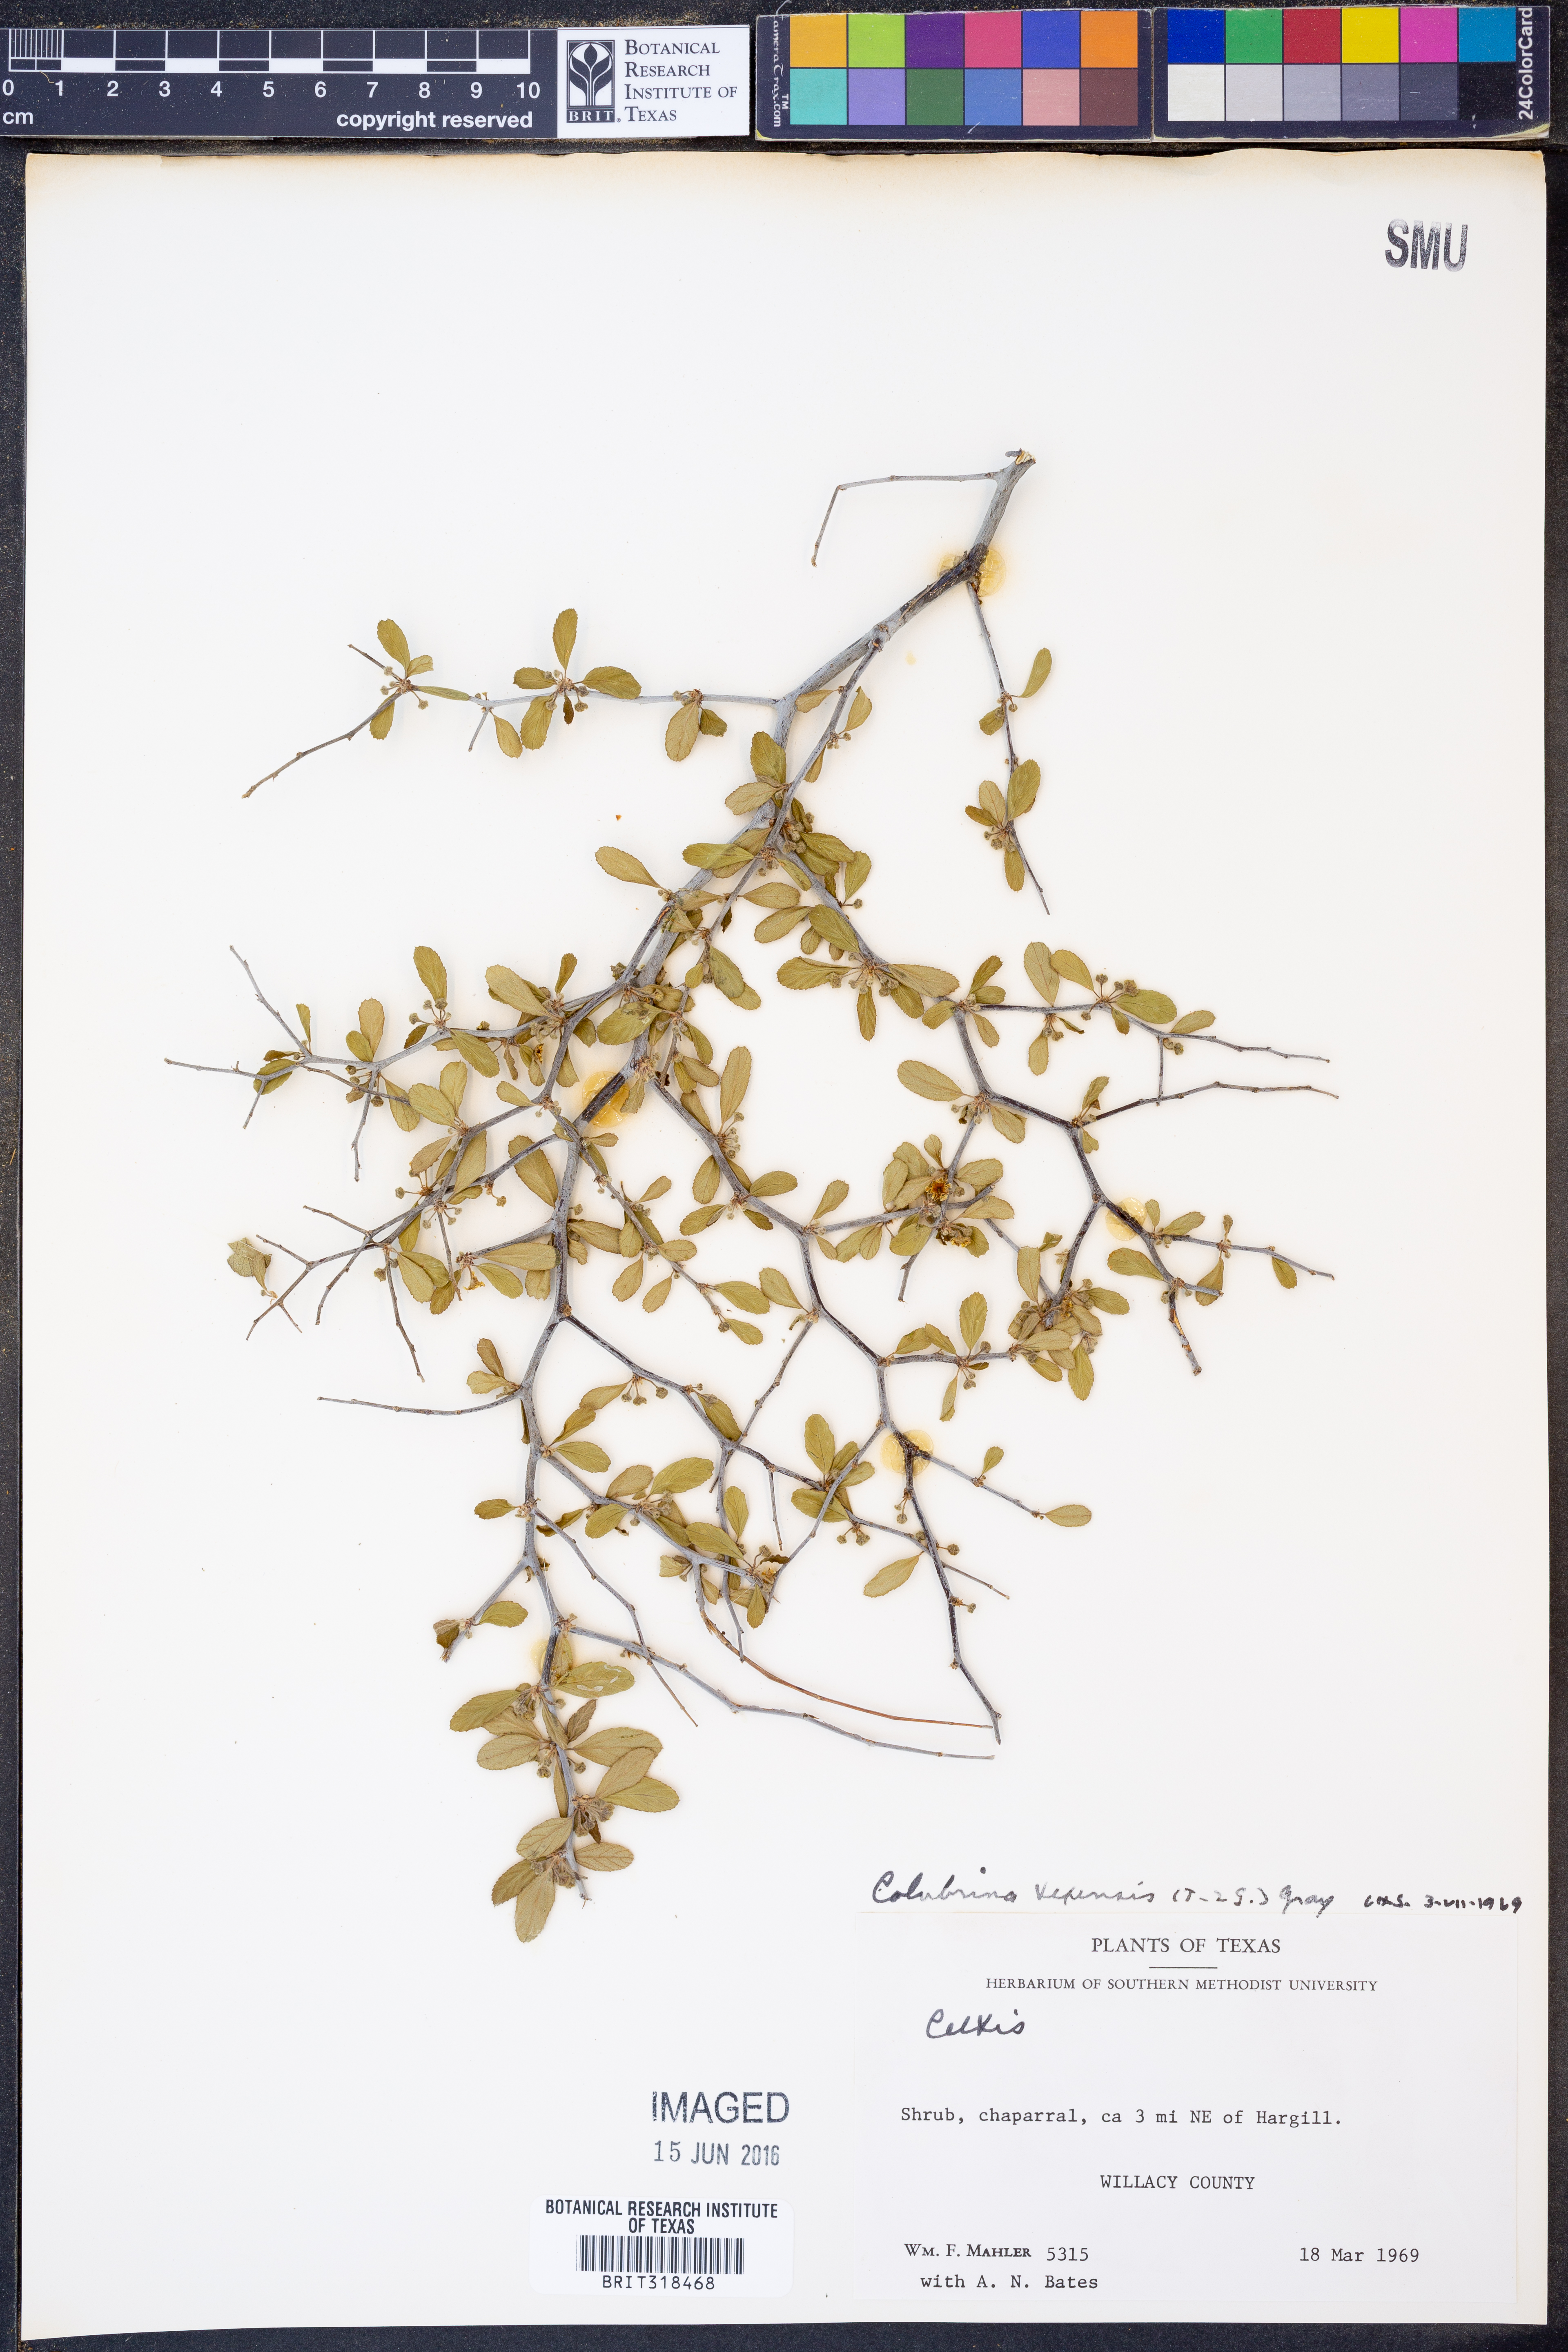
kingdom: Plantae
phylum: Tracheophyta
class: Magnoliopsida
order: Rosales
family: Rhamnaceae
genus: Colubrina
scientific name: Colubrina texensis
